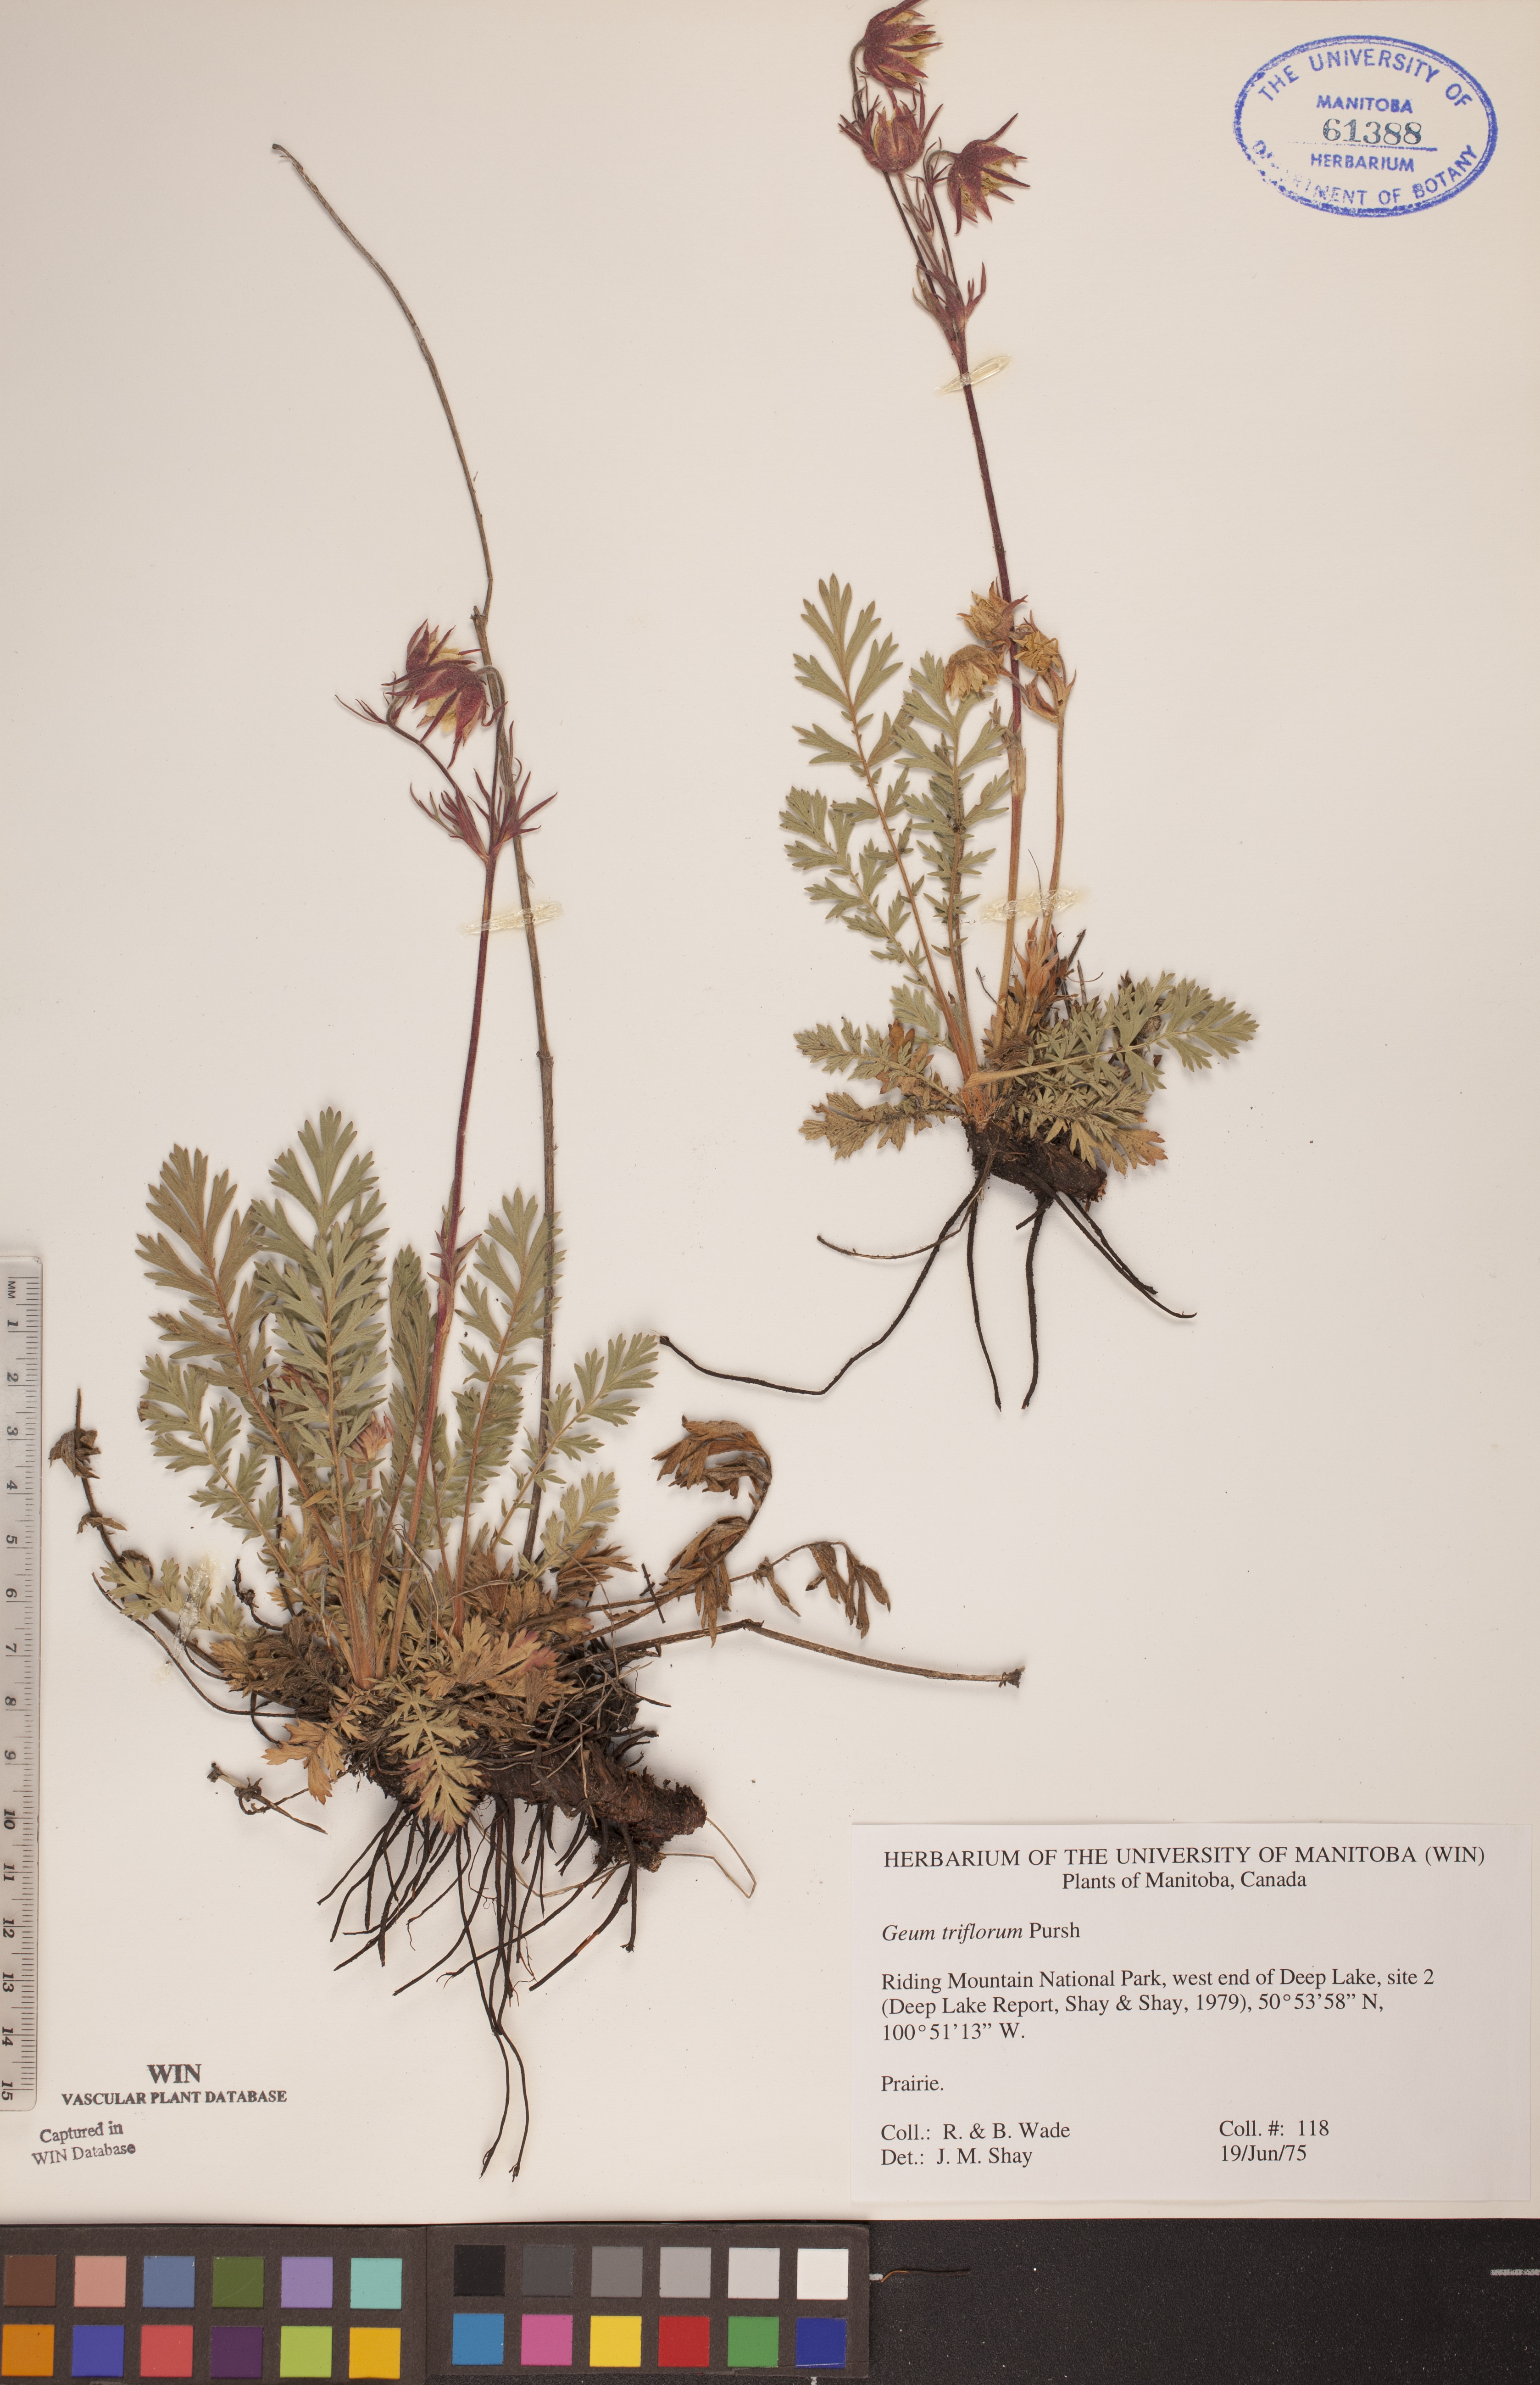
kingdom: Plantae
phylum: Tracheophyta
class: Magnoliopsida
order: Rosales
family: Rosaceae
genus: Geum
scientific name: Geum triflorum
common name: Old man's whiskers
